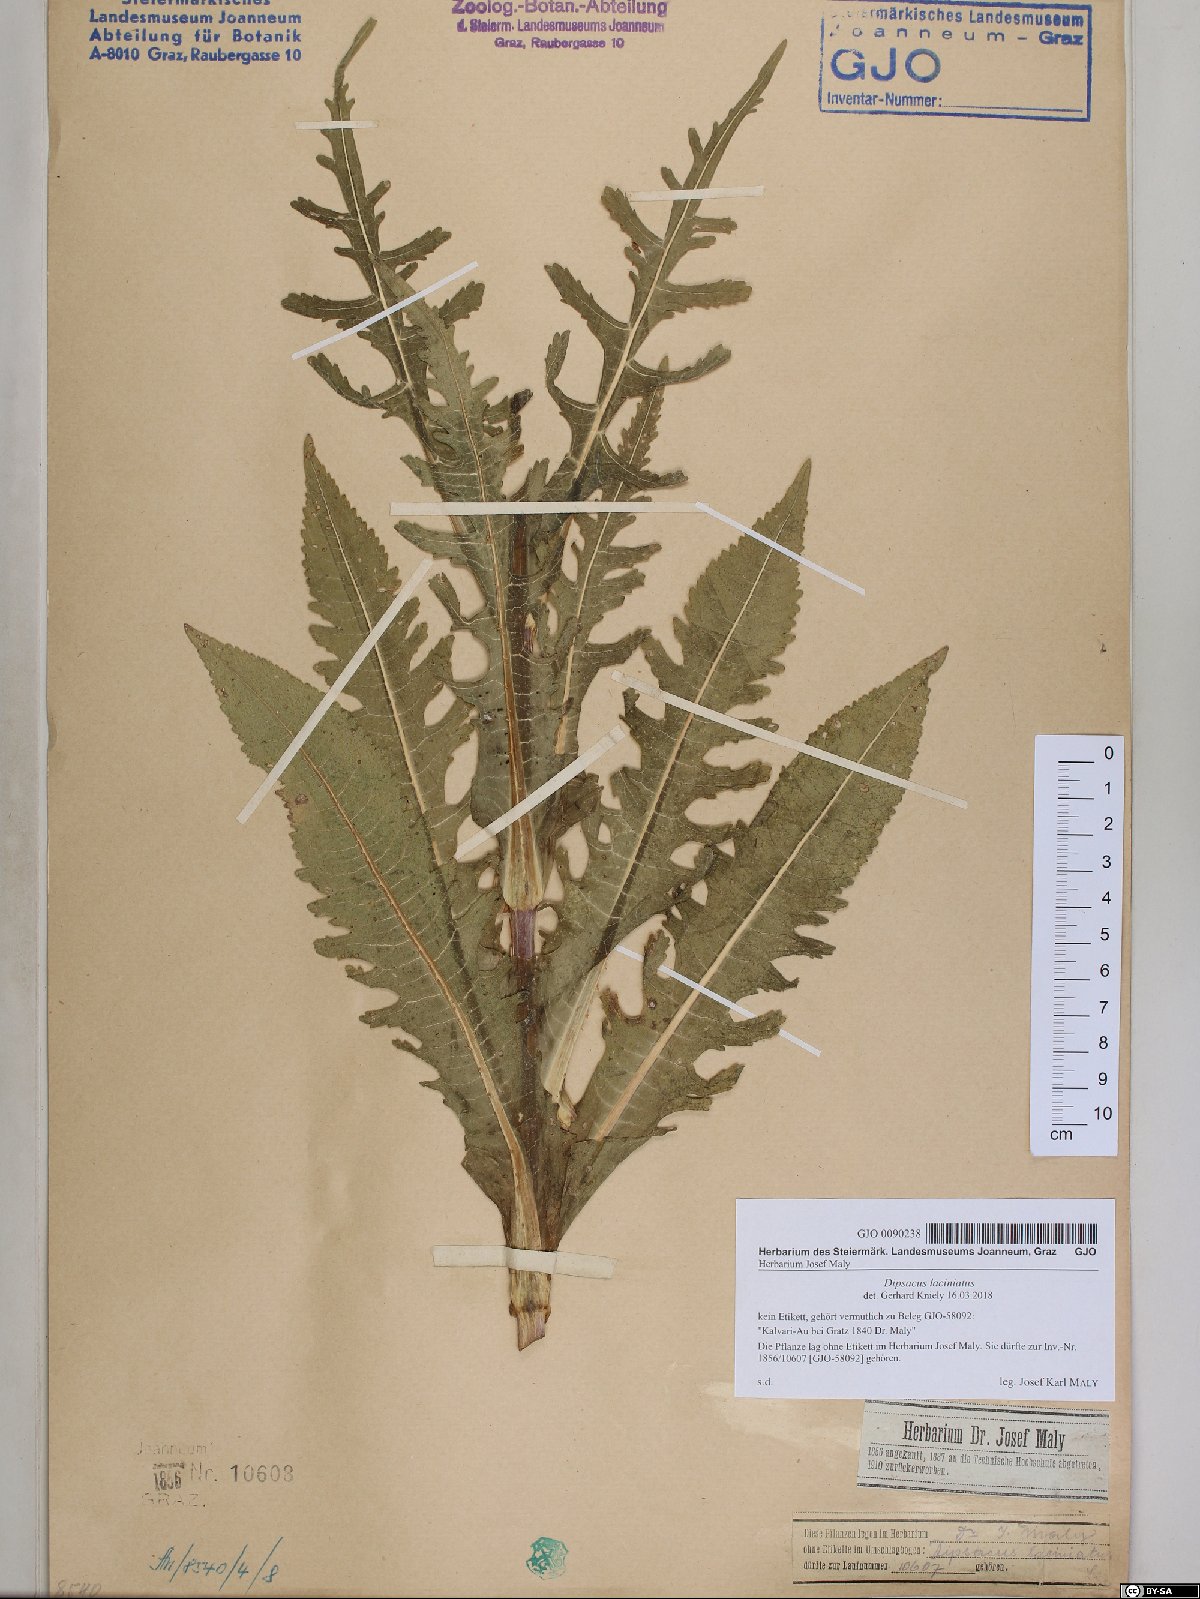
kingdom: Plantae
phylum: Tracheophyta
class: Magnoliopsida
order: Dipsacales
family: Caprifoliaceae
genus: Dipsacus
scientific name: Dipsacus laciniatus
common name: Cut-leaved teasel
